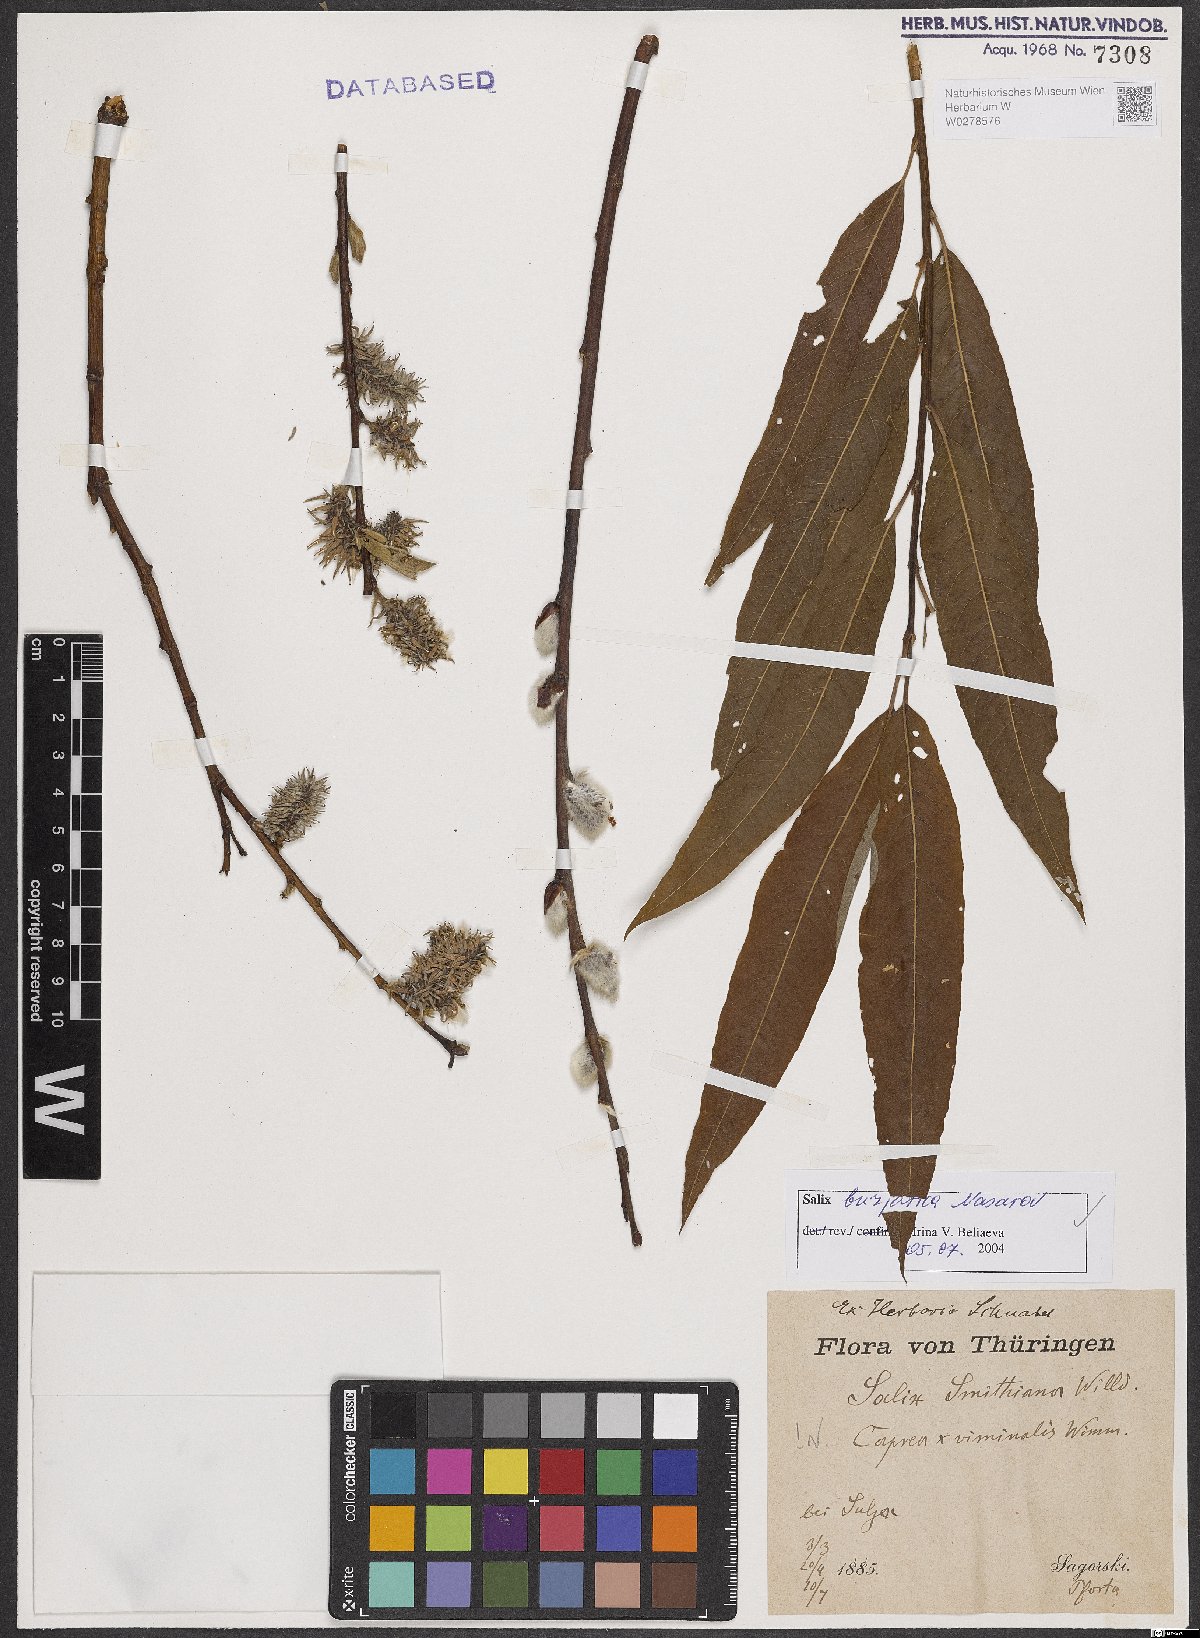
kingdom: Plantae
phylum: Tracheophyta
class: Magnoliopsida
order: Malpighiales
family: Salicaceae
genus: Salix
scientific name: Salix gmelinii
